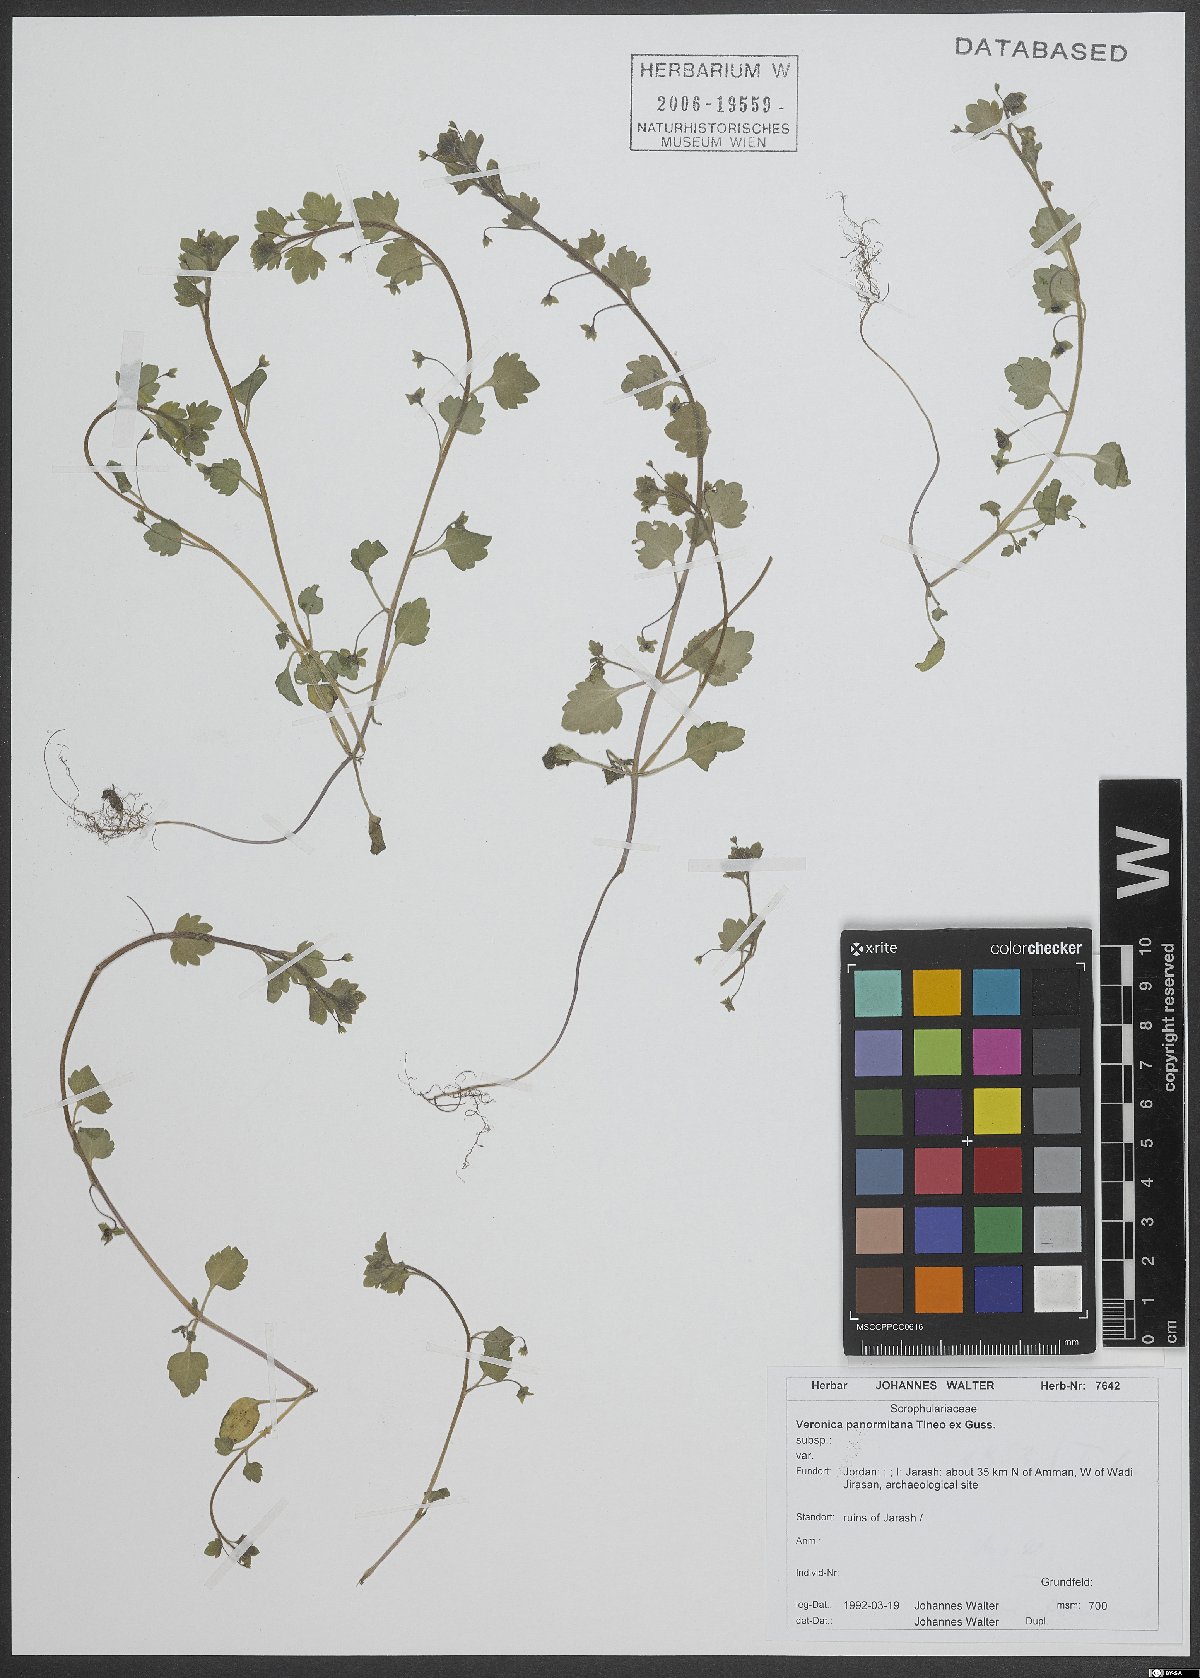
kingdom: Plantae
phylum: Tracheophyta
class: Magnoliopsida
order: Lamiales
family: Plantaginaceae
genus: Veronica
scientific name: Veronica panormitana
